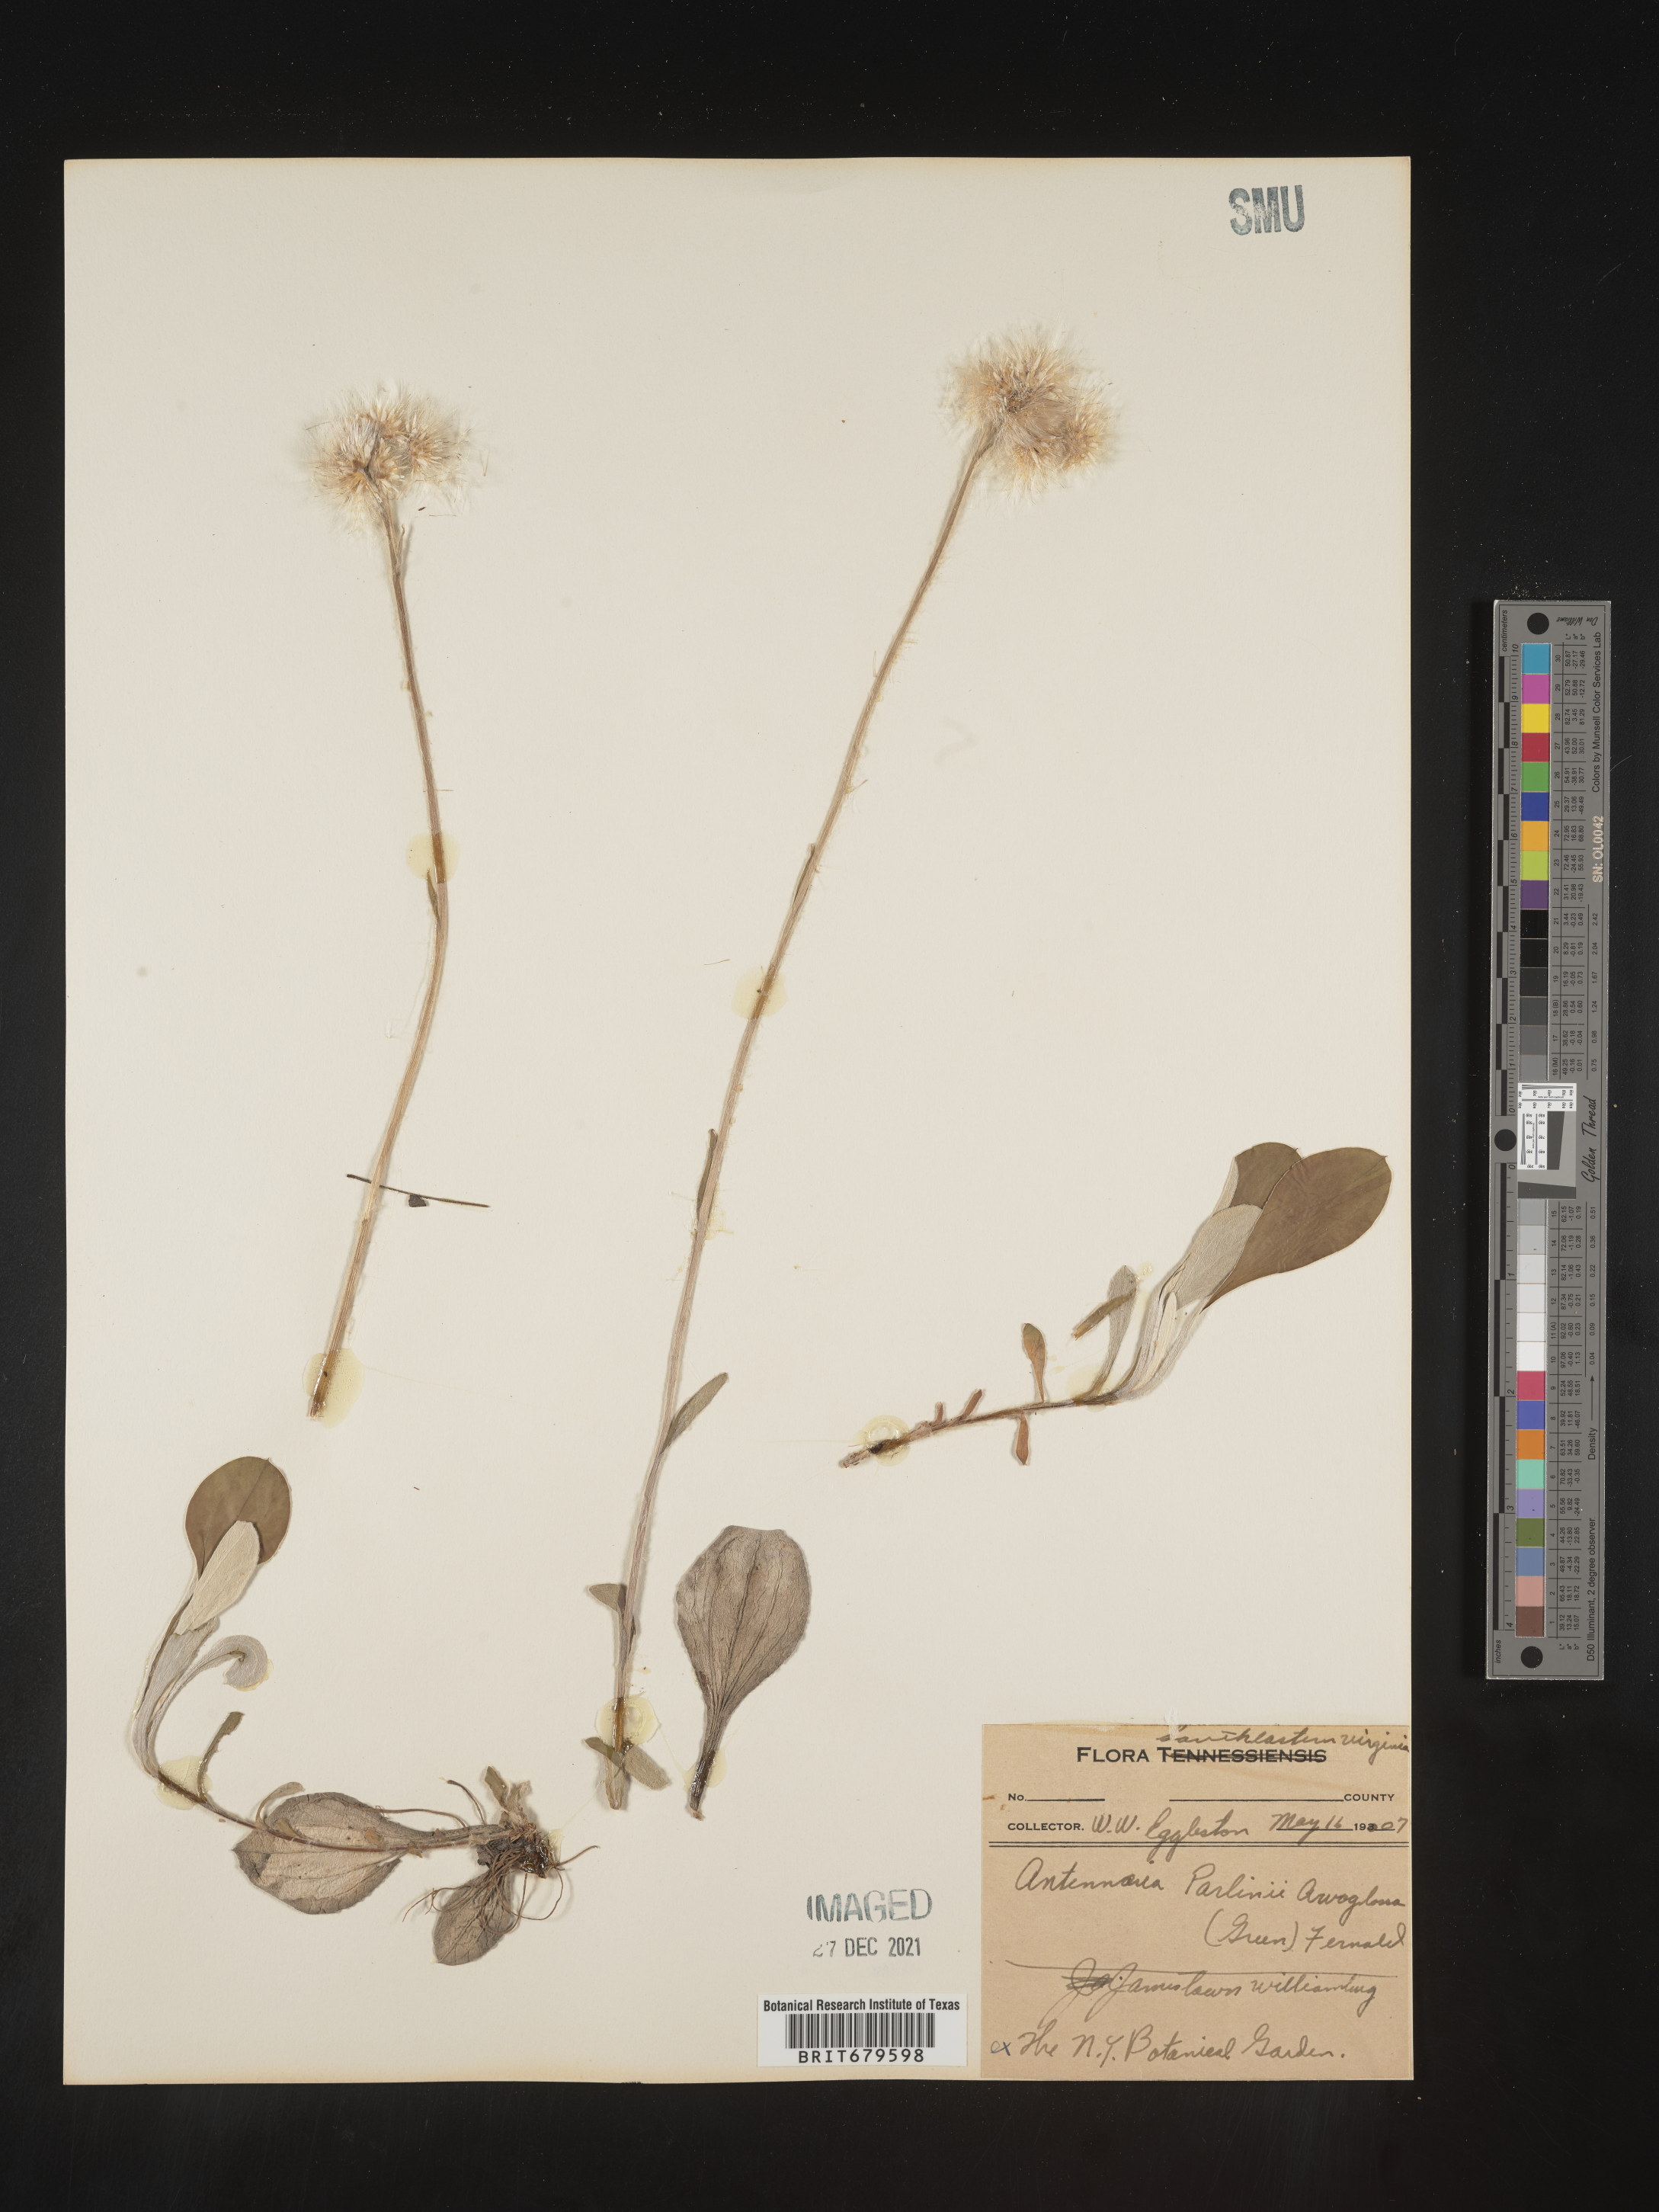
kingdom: Plantae
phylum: Tracheophyta
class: Magnoliopsida
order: Asterales
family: Asteraceae
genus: Antennaria
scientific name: Antennaria parlinii
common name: Parlin's pussytoes
